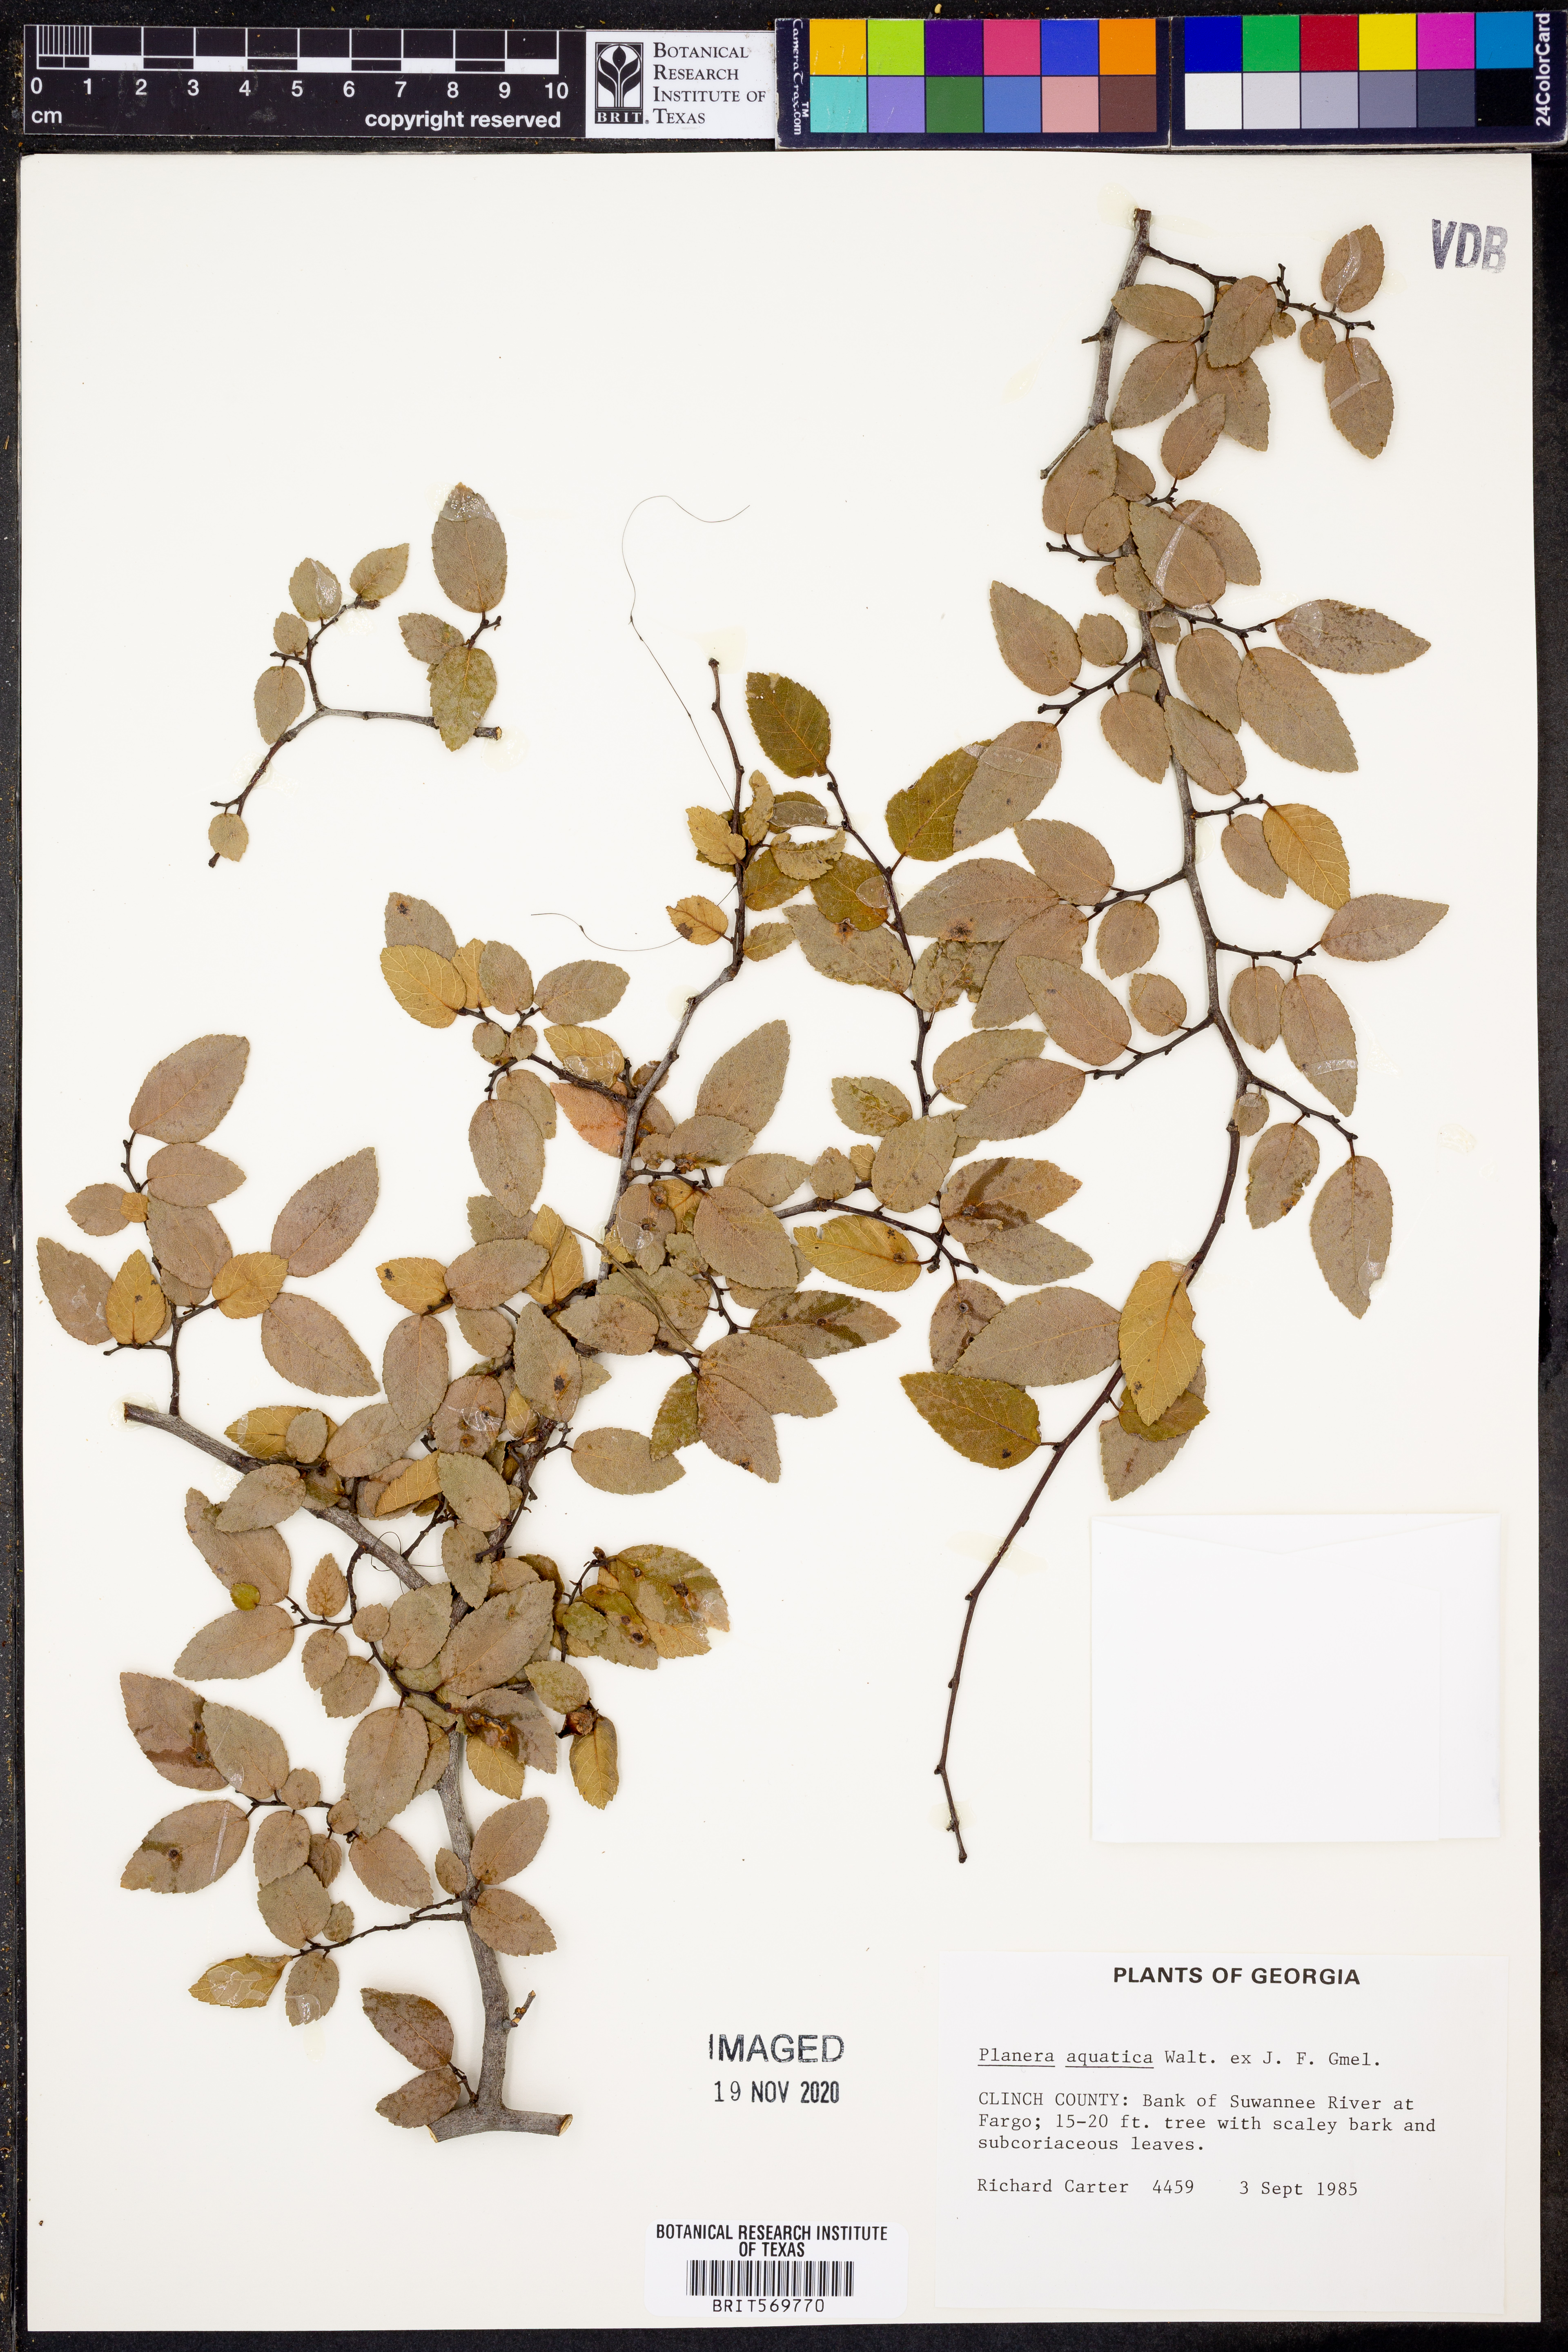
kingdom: Plantae
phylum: Tracheophyta
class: Magnoliopsida
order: Rosales
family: Ulmaceae
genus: Planera
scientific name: Planera aquatica
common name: Water-elm
